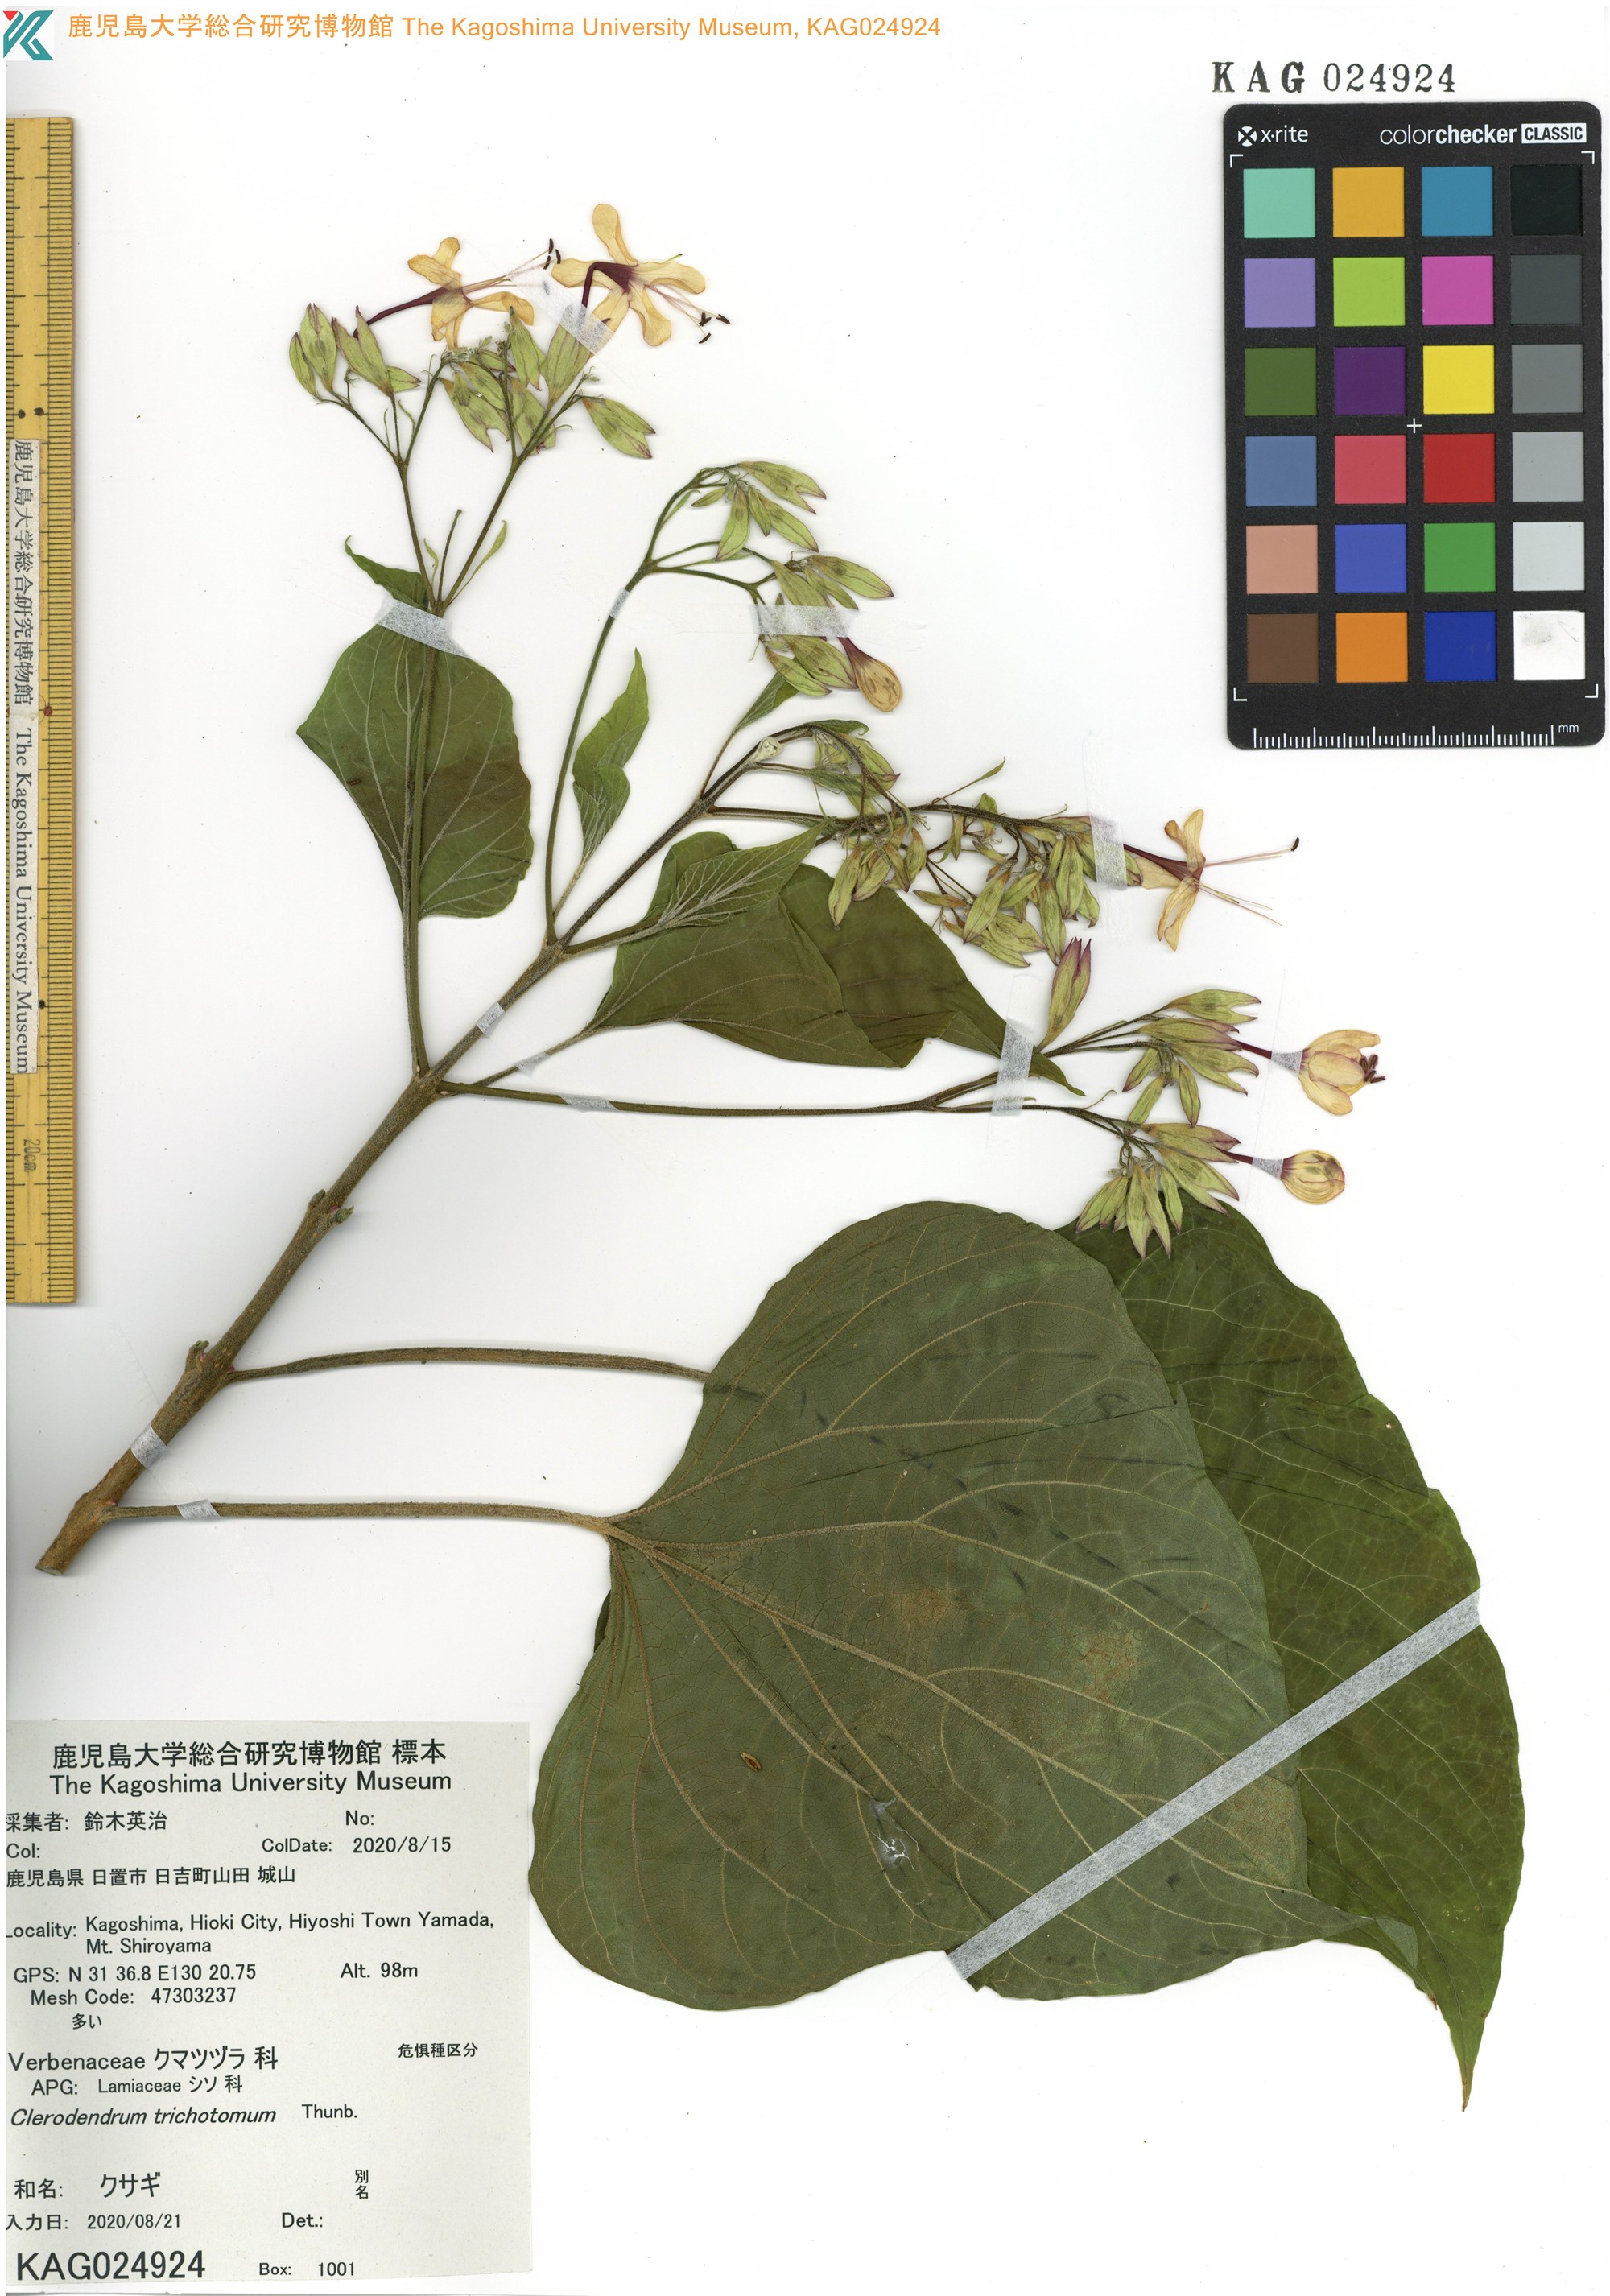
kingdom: Plantae
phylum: Tracheophyta
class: Magnoliopsida
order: Lamiales
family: Lamiaceae
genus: Clerodendrum
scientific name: Clerodendrum trichotomum
